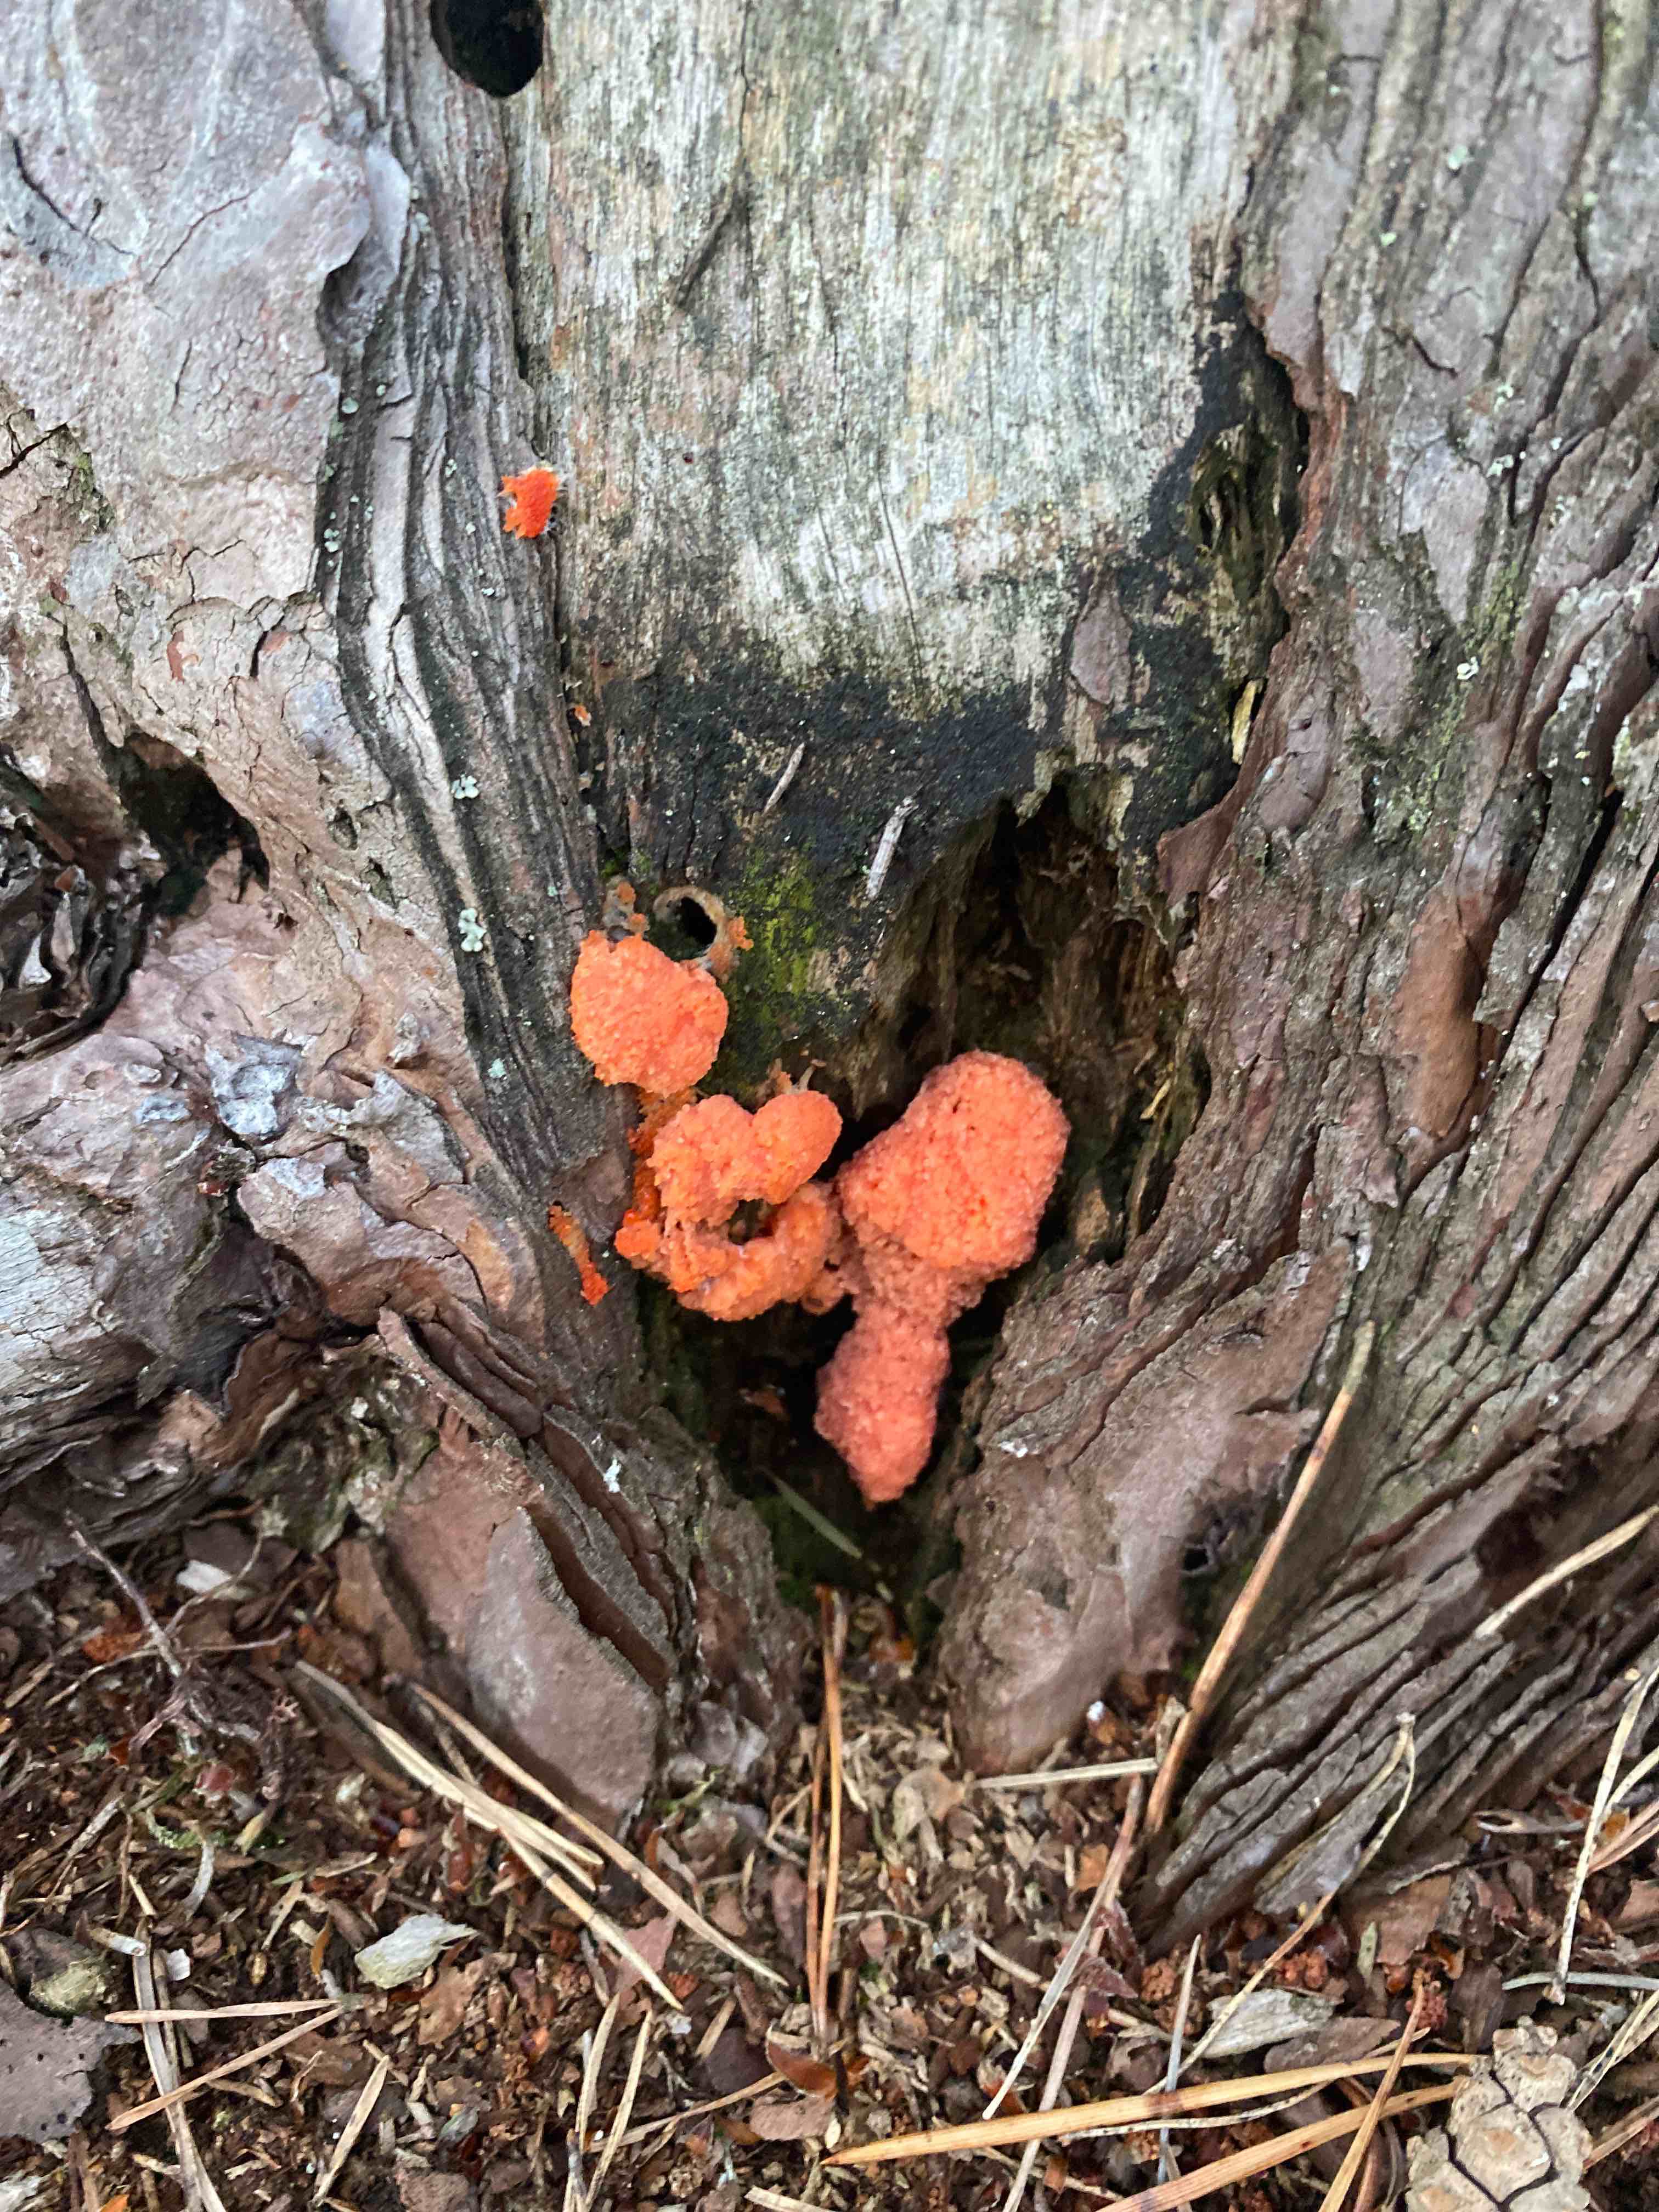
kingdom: Protozoa
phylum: Mycetozoa
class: Myxomycetes
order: Cribrariales
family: Tubiferaceae
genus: Tubifera
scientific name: Tubifera ferruginosa
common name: kanel-støvrør
